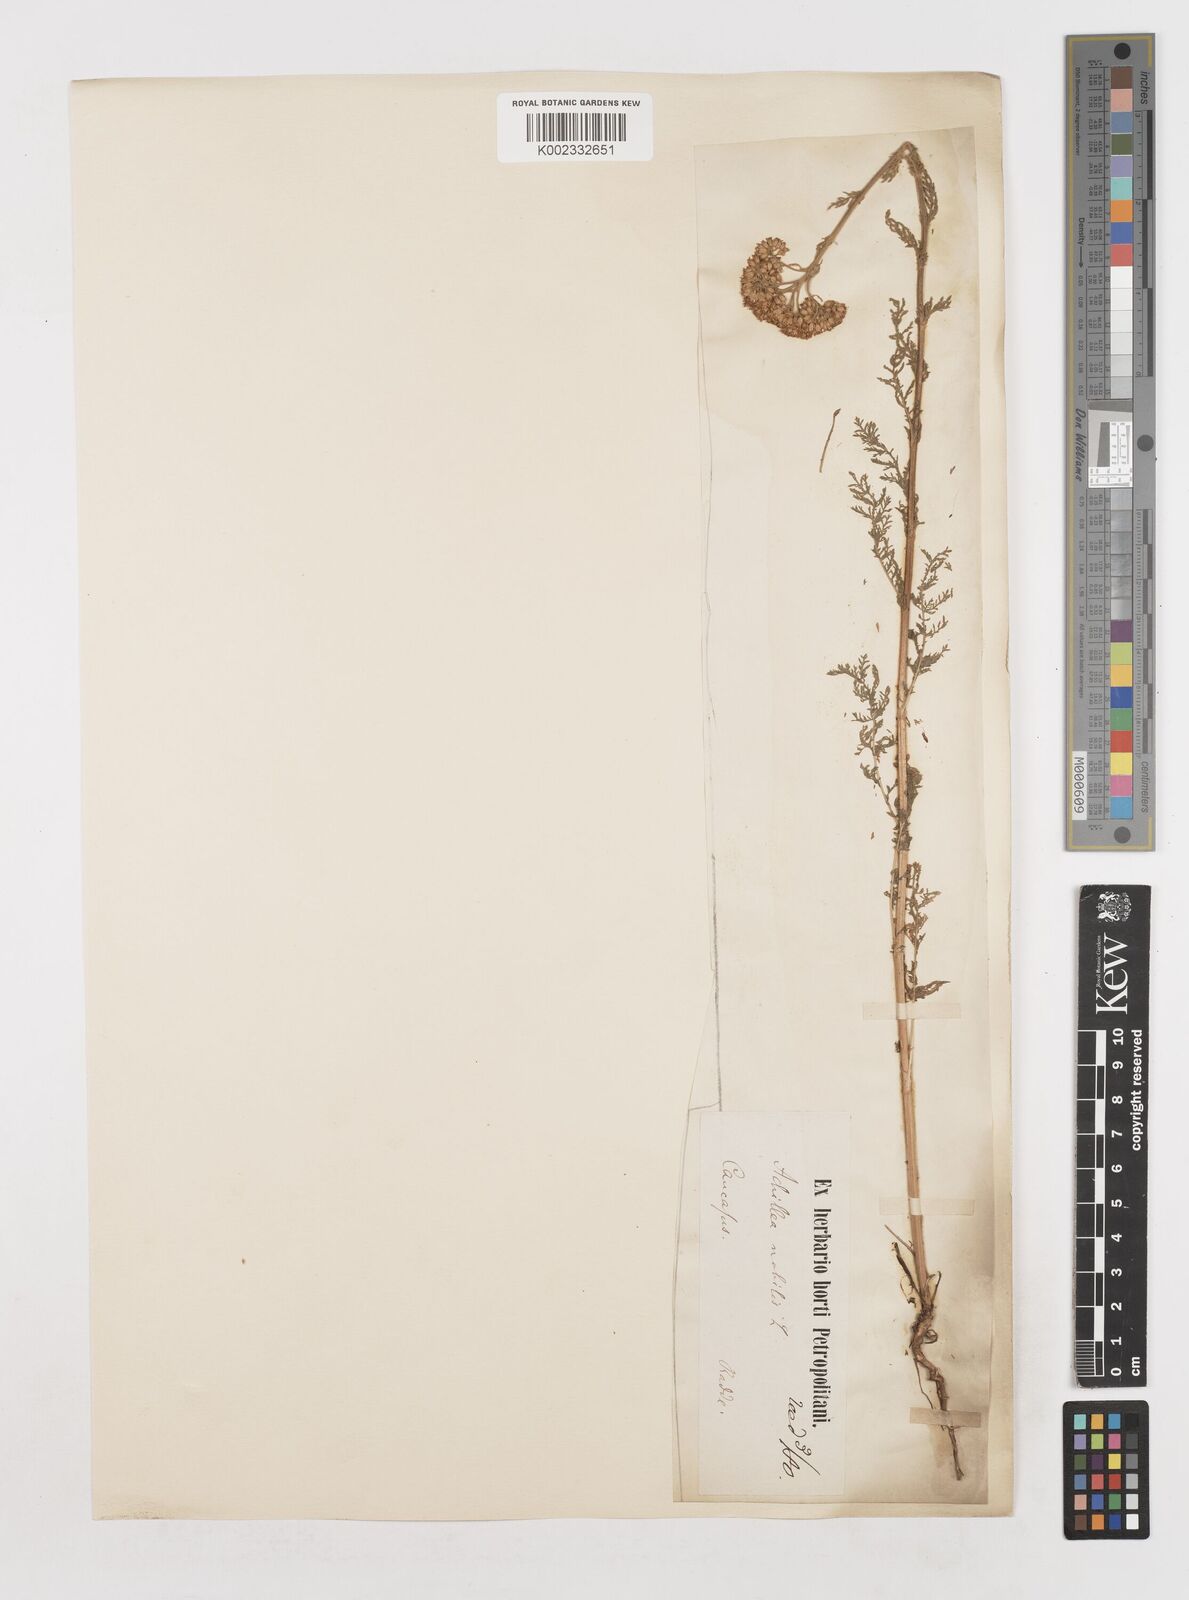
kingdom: Plantae
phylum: Tracheophyta
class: Magnoliopsida
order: Asterales
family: Asteraceae
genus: Achillea
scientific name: Achillea nobilis
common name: Noble yarrow
